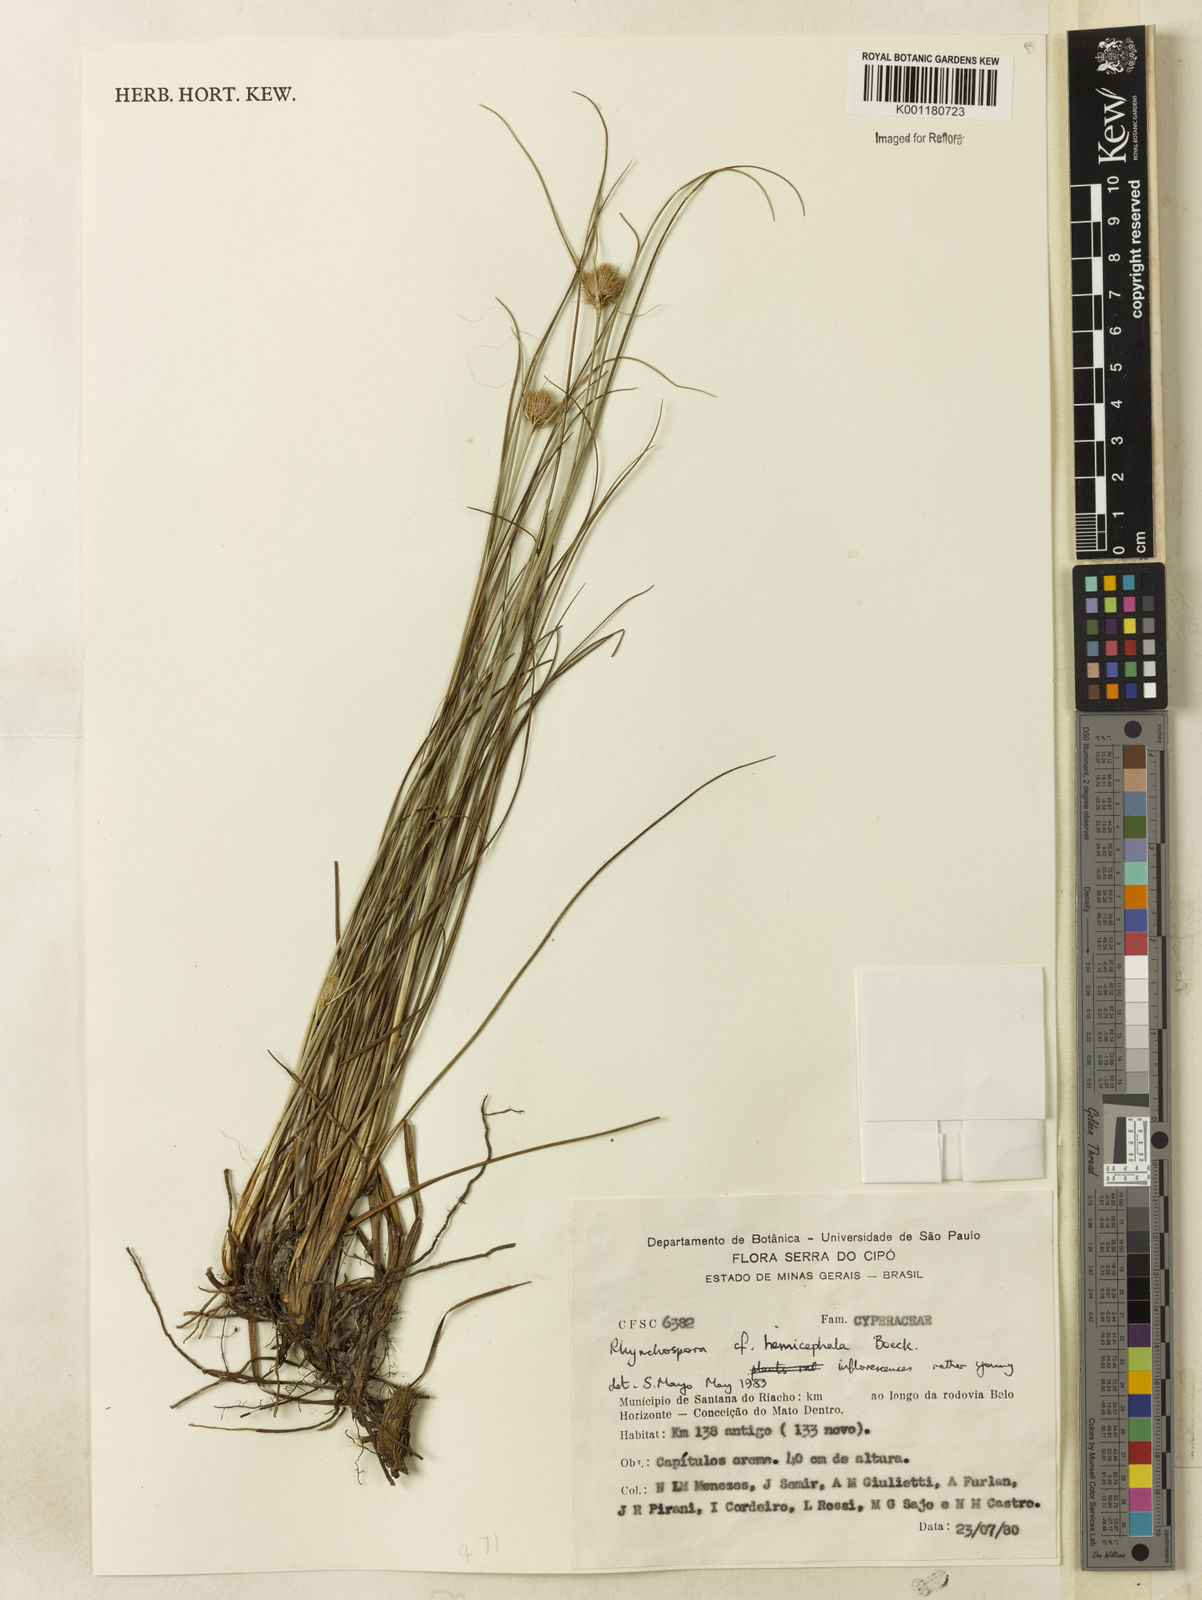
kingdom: Plantae
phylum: Tracheophyta
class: Liliopsida
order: Poales
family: Cyperaceae
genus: Rhynchospora
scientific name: Rhynchospora recurvata
